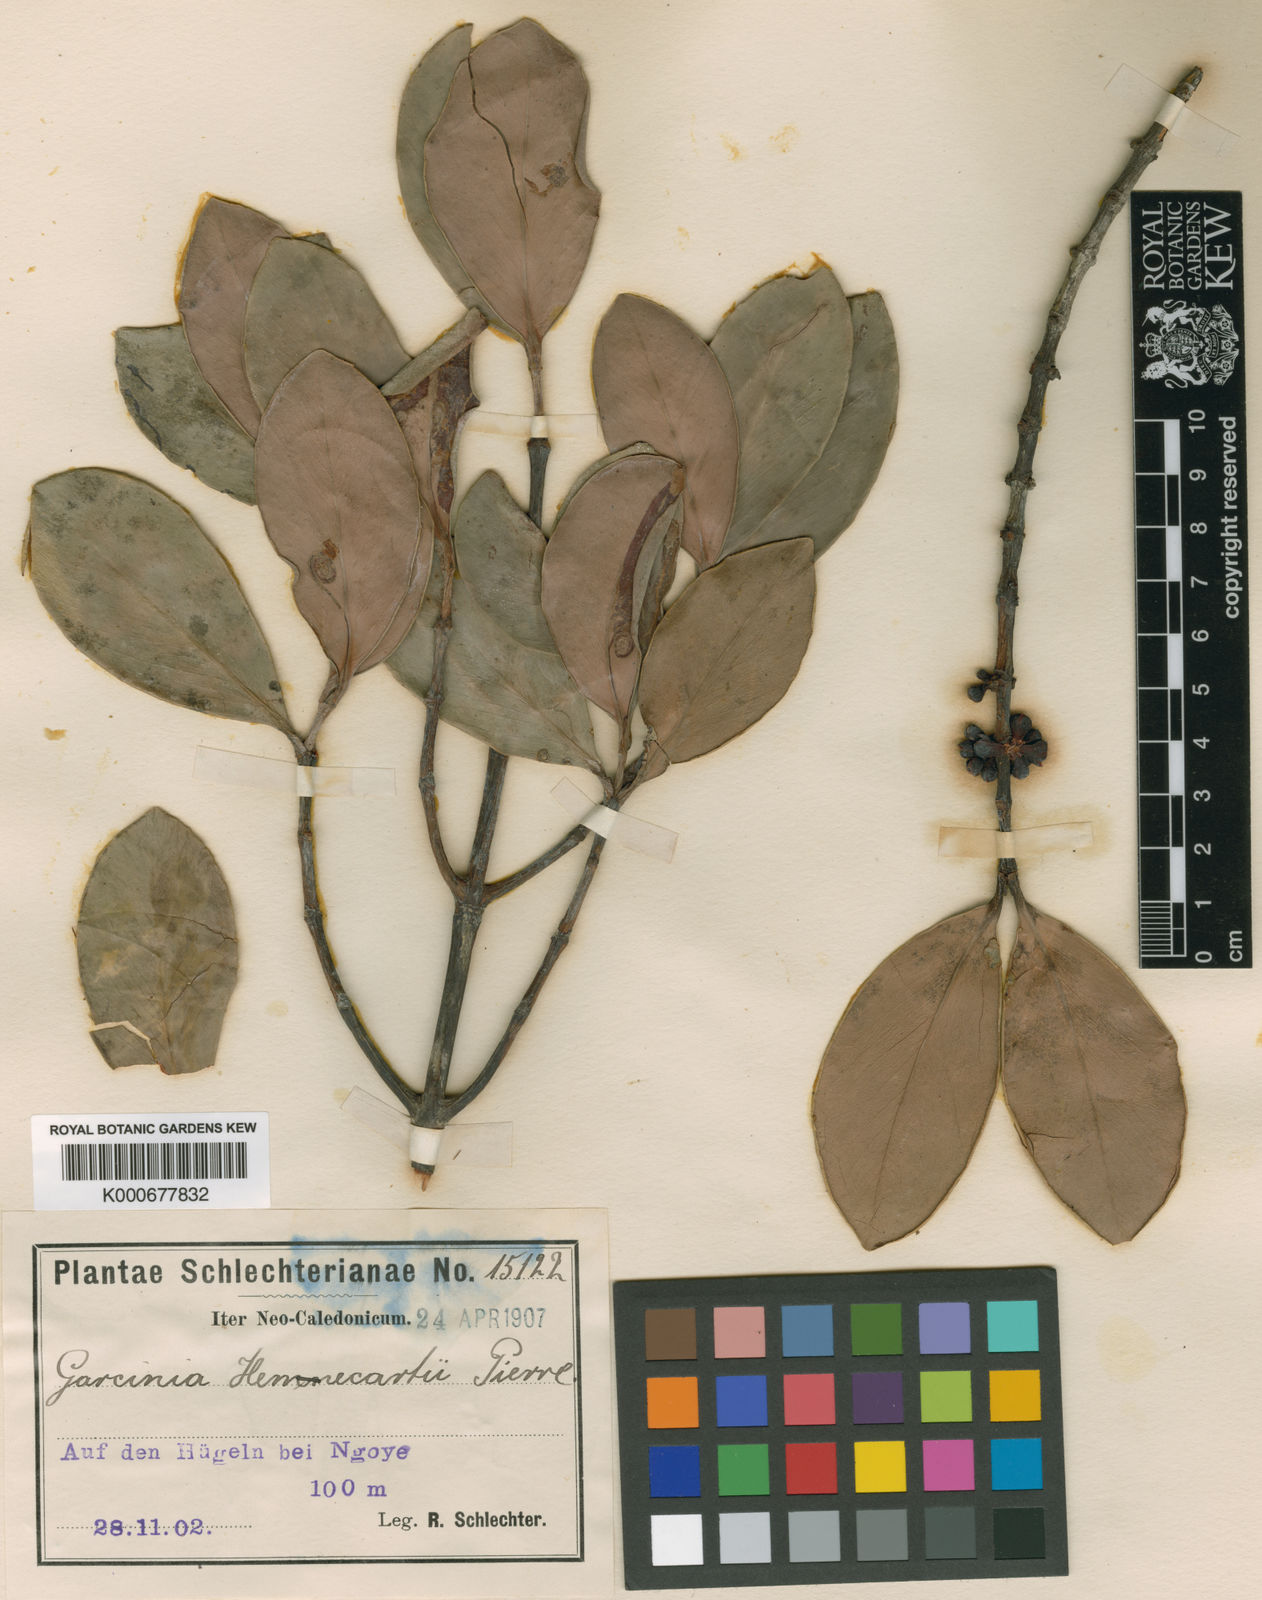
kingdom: Plantae
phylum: Tracheophyta
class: Magnoliopsida
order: Malpighiales
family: Clusiaceae
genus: Garcinia
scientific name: Garcinia hennecartii
